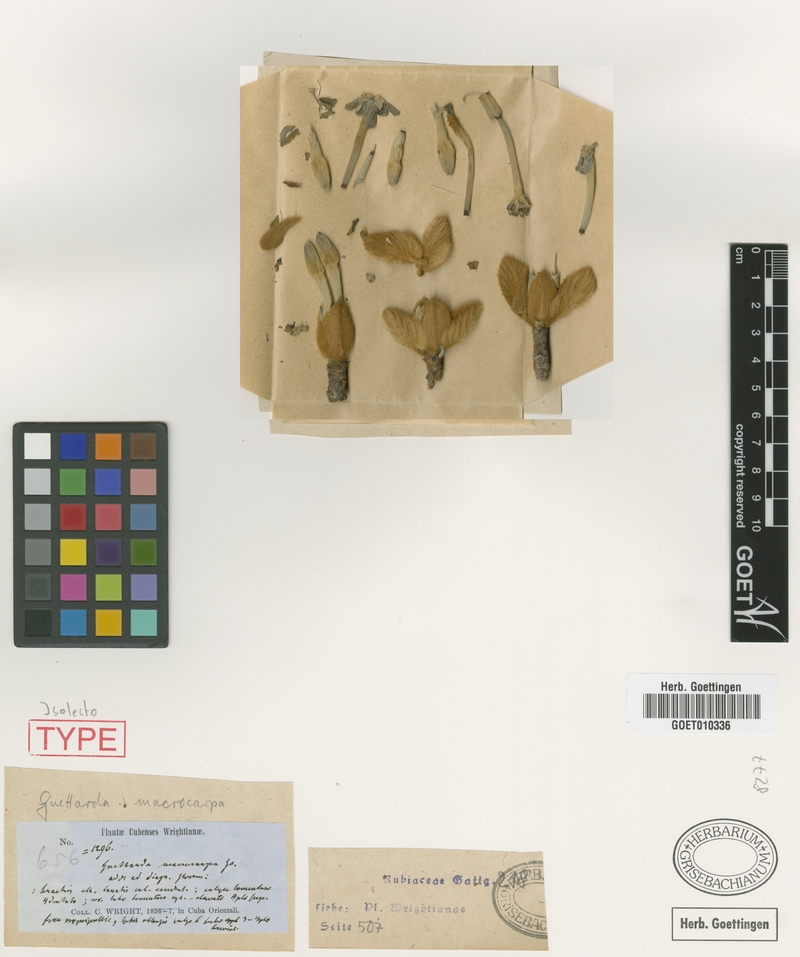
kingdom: Plantae
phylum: Tracheophyta
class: Magnoliopsida
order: Gentianales
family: Rubiaceae
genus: Guettarda
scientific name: Guettarda macrocarpa
